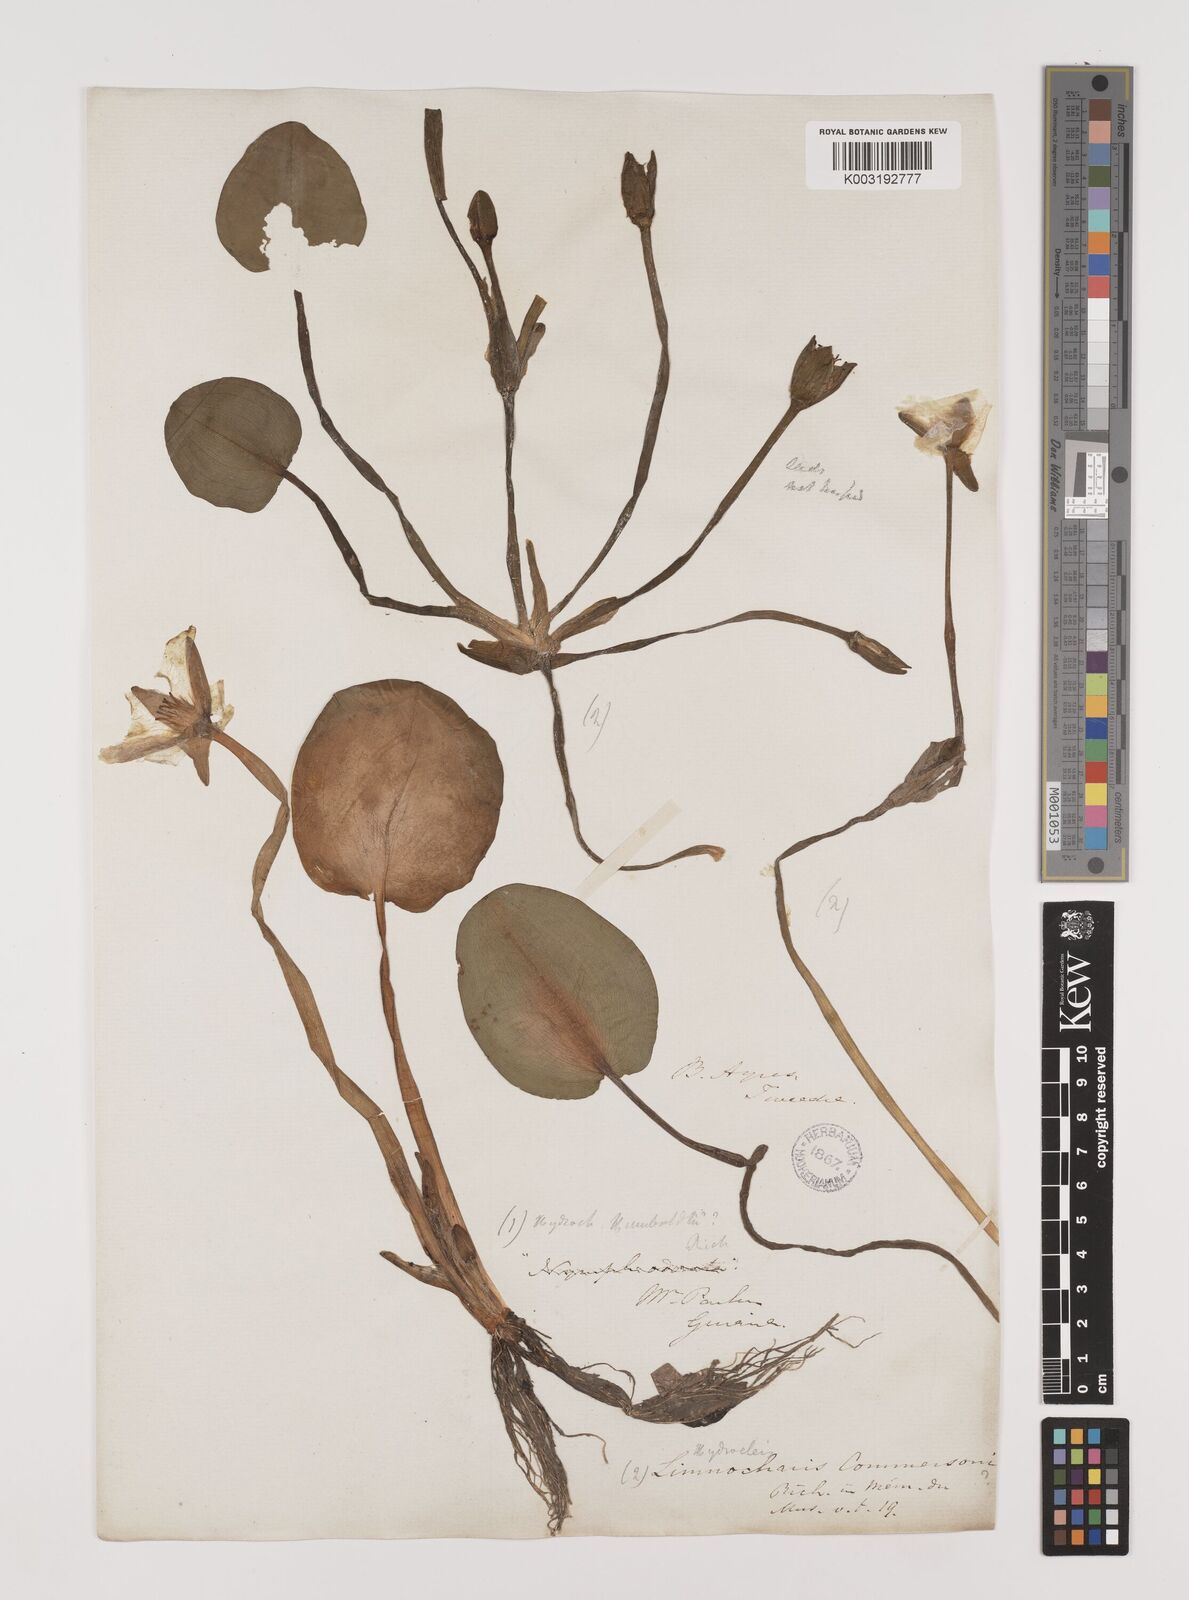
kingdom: Plantae
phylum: Tracheophyta
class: Liliopsida
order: Alismatales
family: Alismataceae
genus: Hydrocleys
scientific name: Hydrocleys nymphoides
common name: Water-poppy
